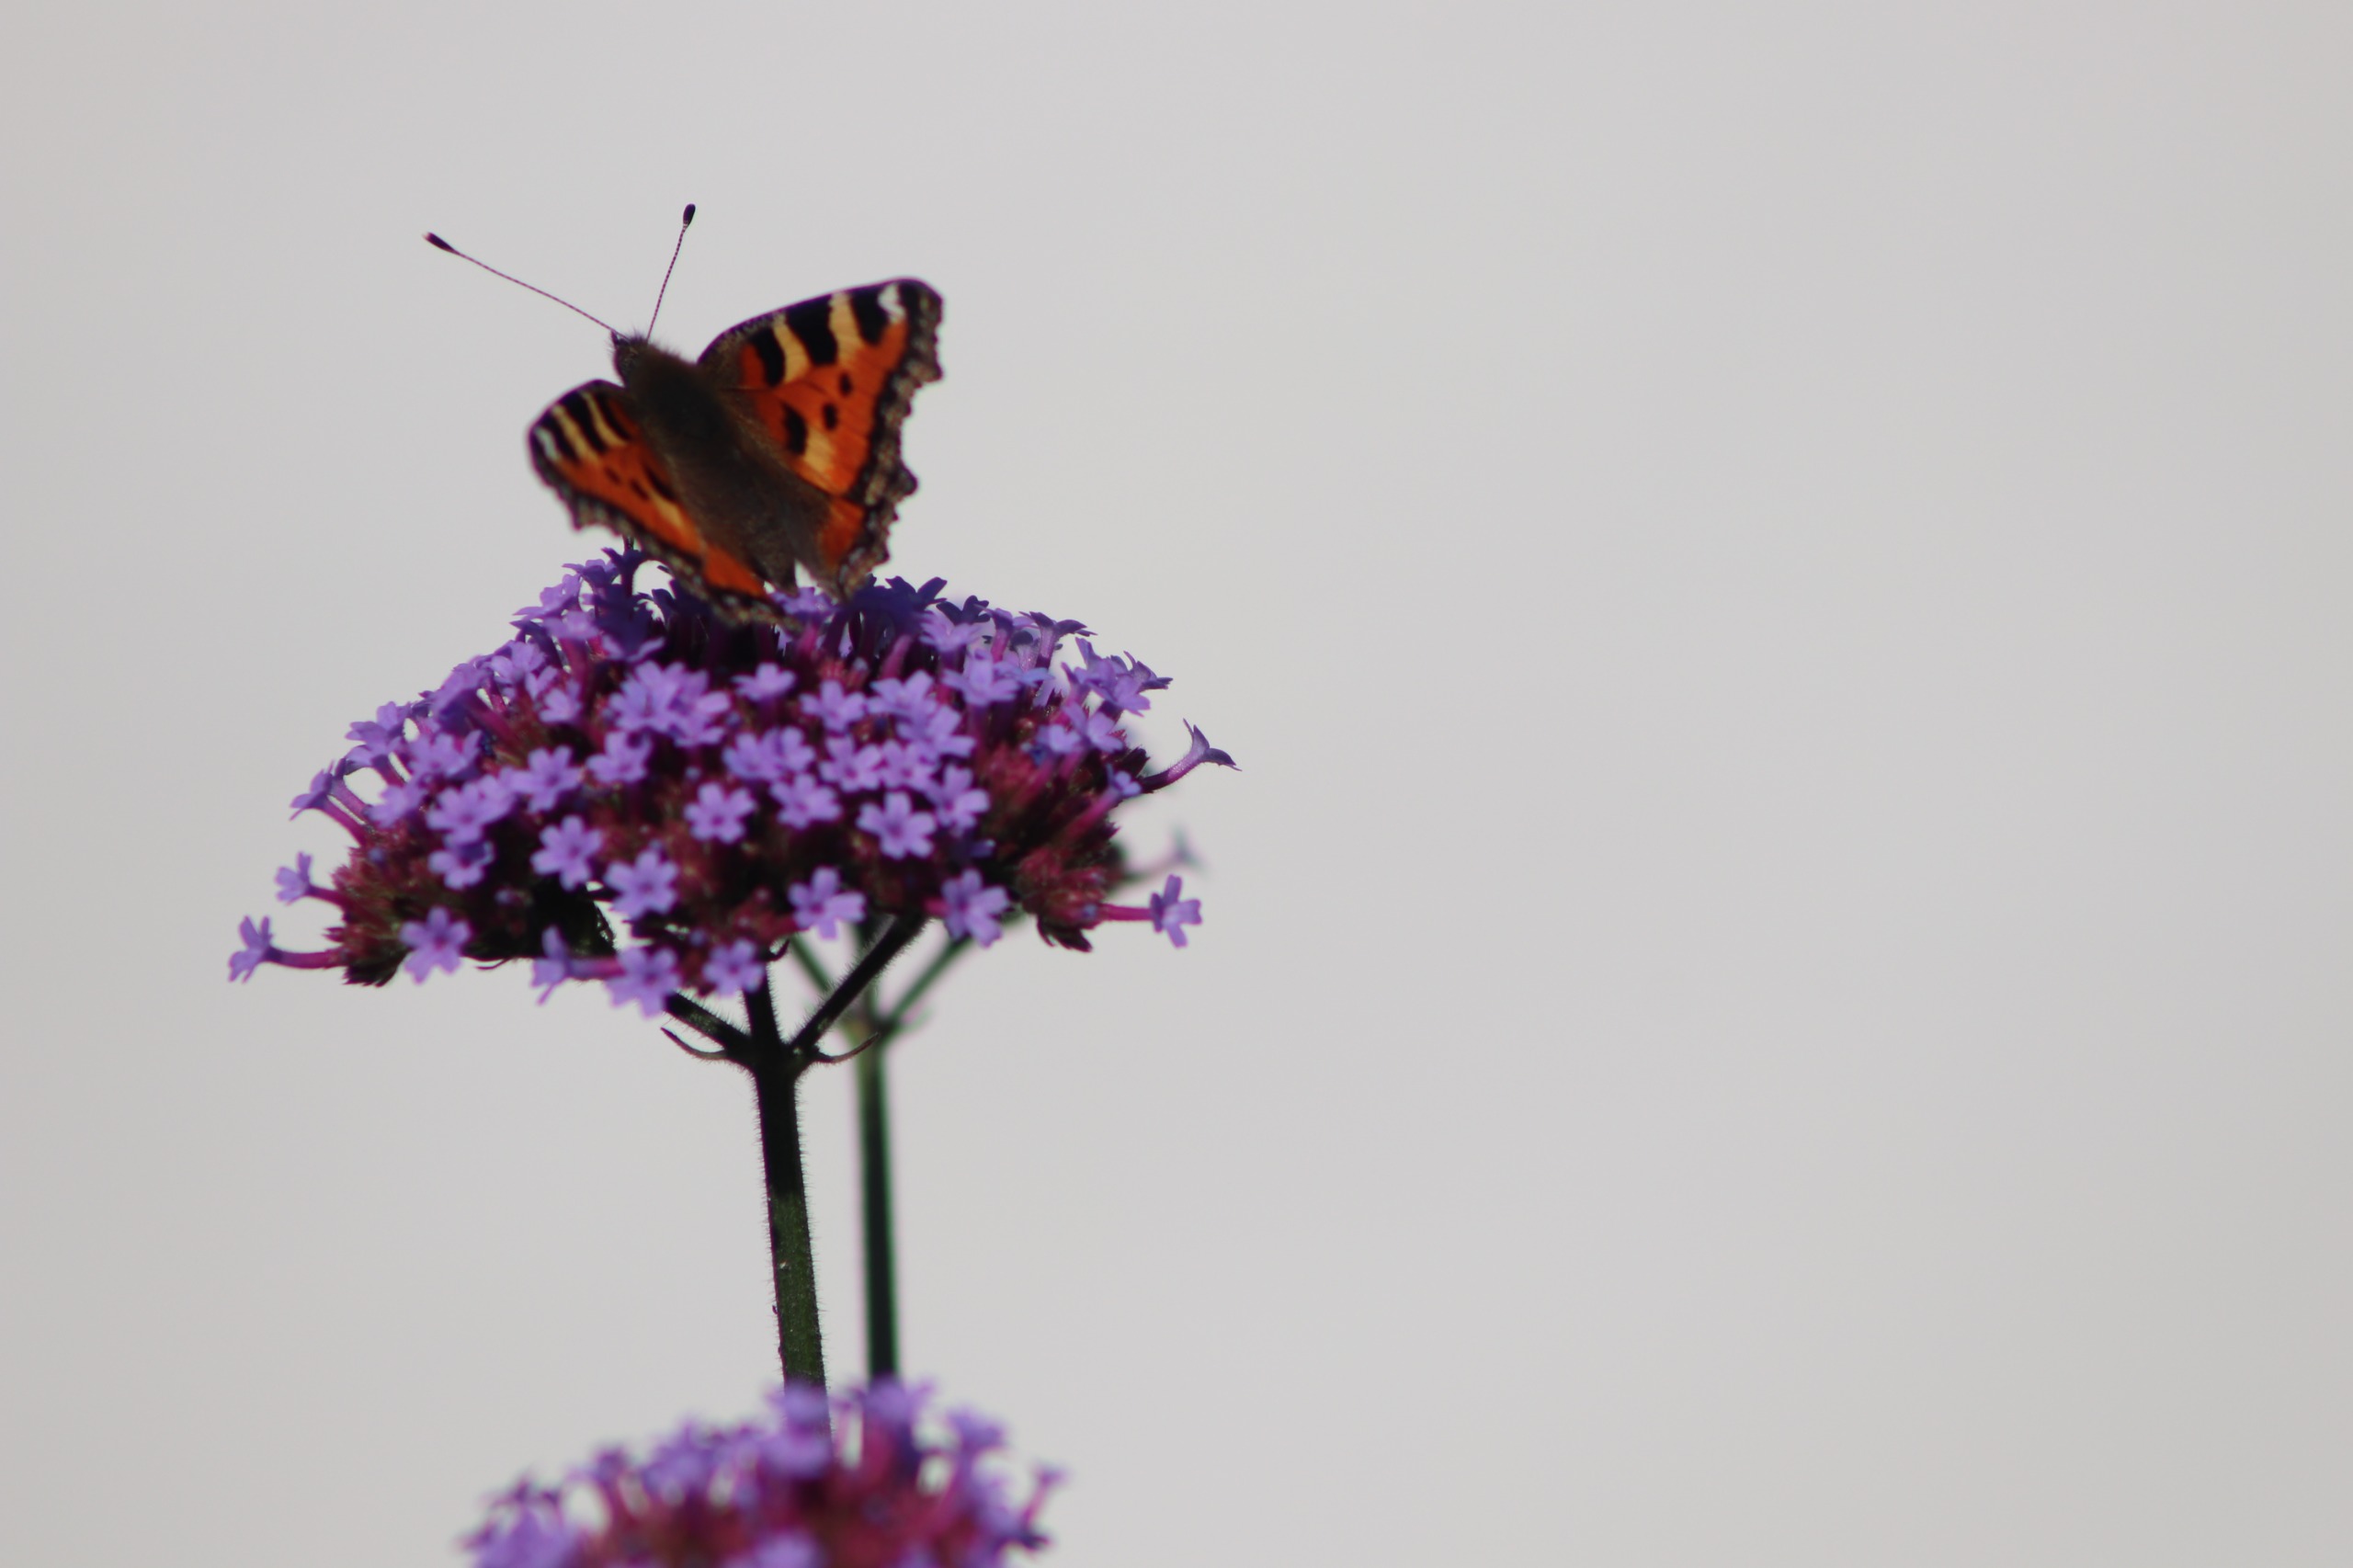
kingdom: Animalia
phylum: Arthropoda
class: Insecta
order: Lepidoptera
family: Nymphalidae
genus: Aglais
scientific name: Aglais urticae
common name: Nældens takvinge
